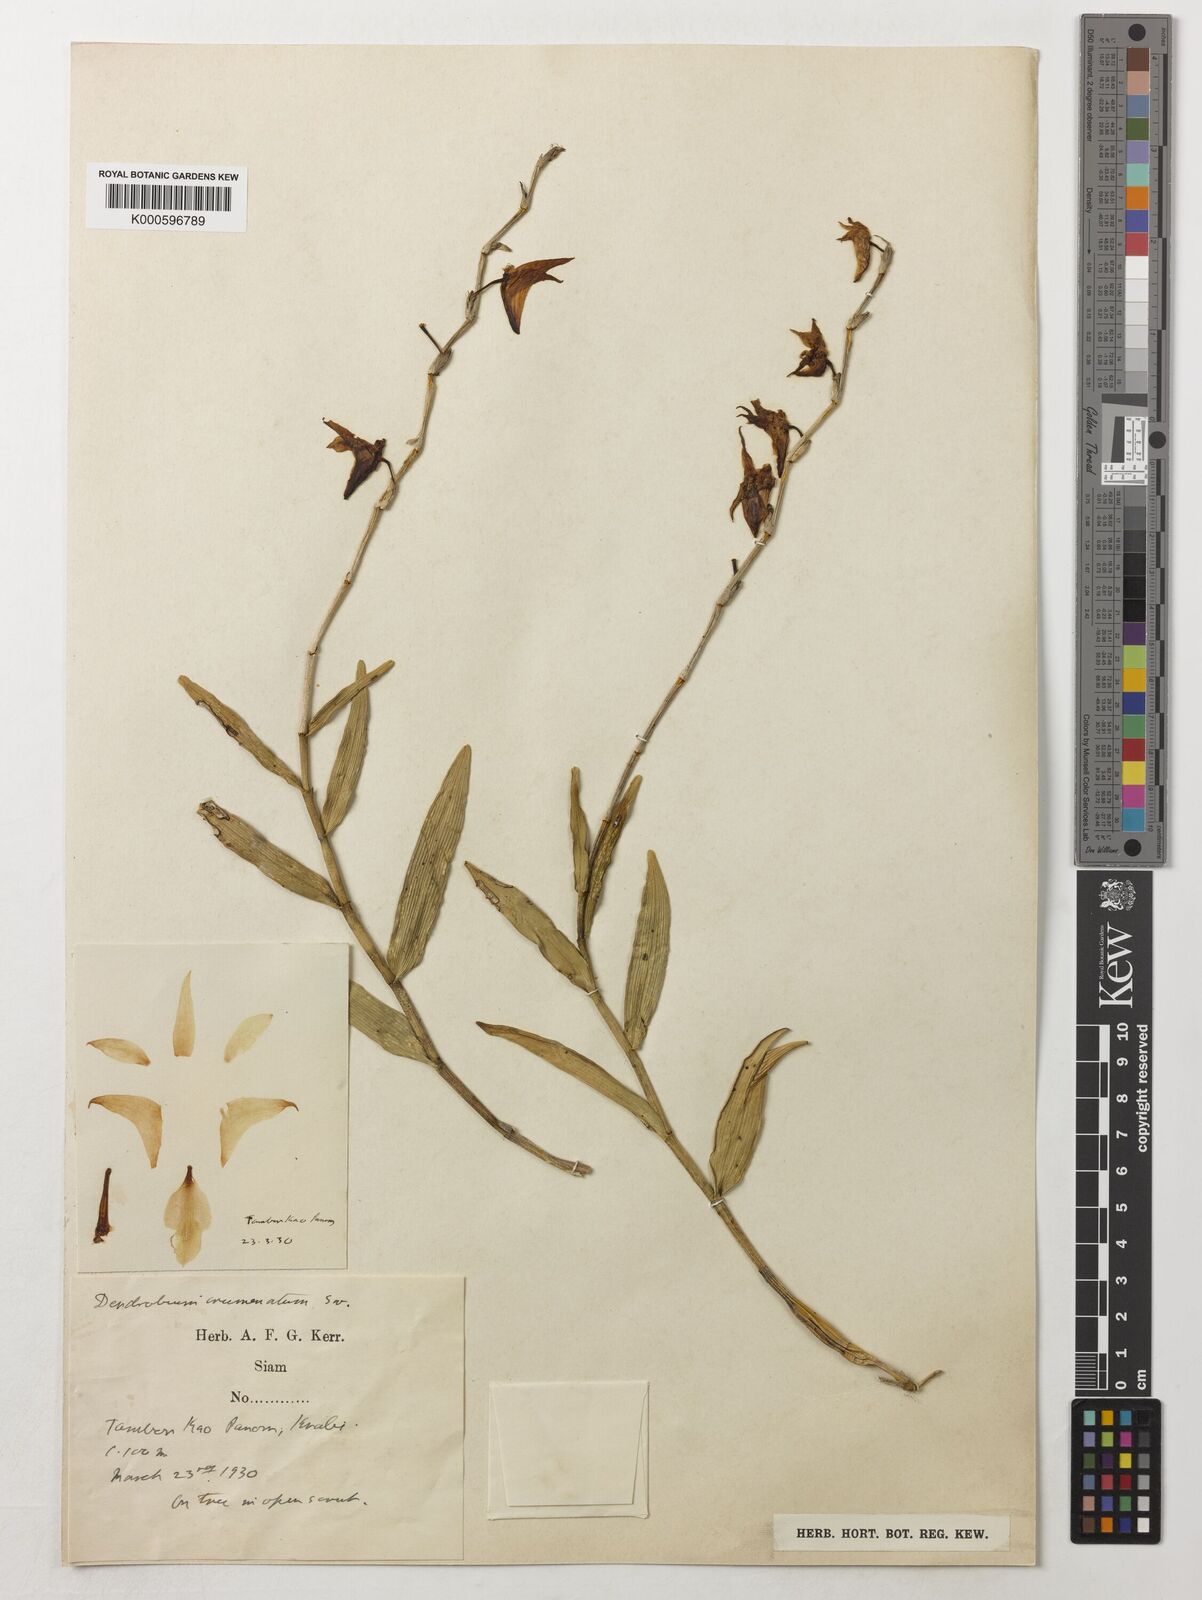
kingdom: Plantae
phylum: Tracheophyta
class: Liliopsida
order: Asparagales
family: Orchidaceae
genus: Dendrobium
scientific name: Dendrobium crumenatum
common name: Orchid
